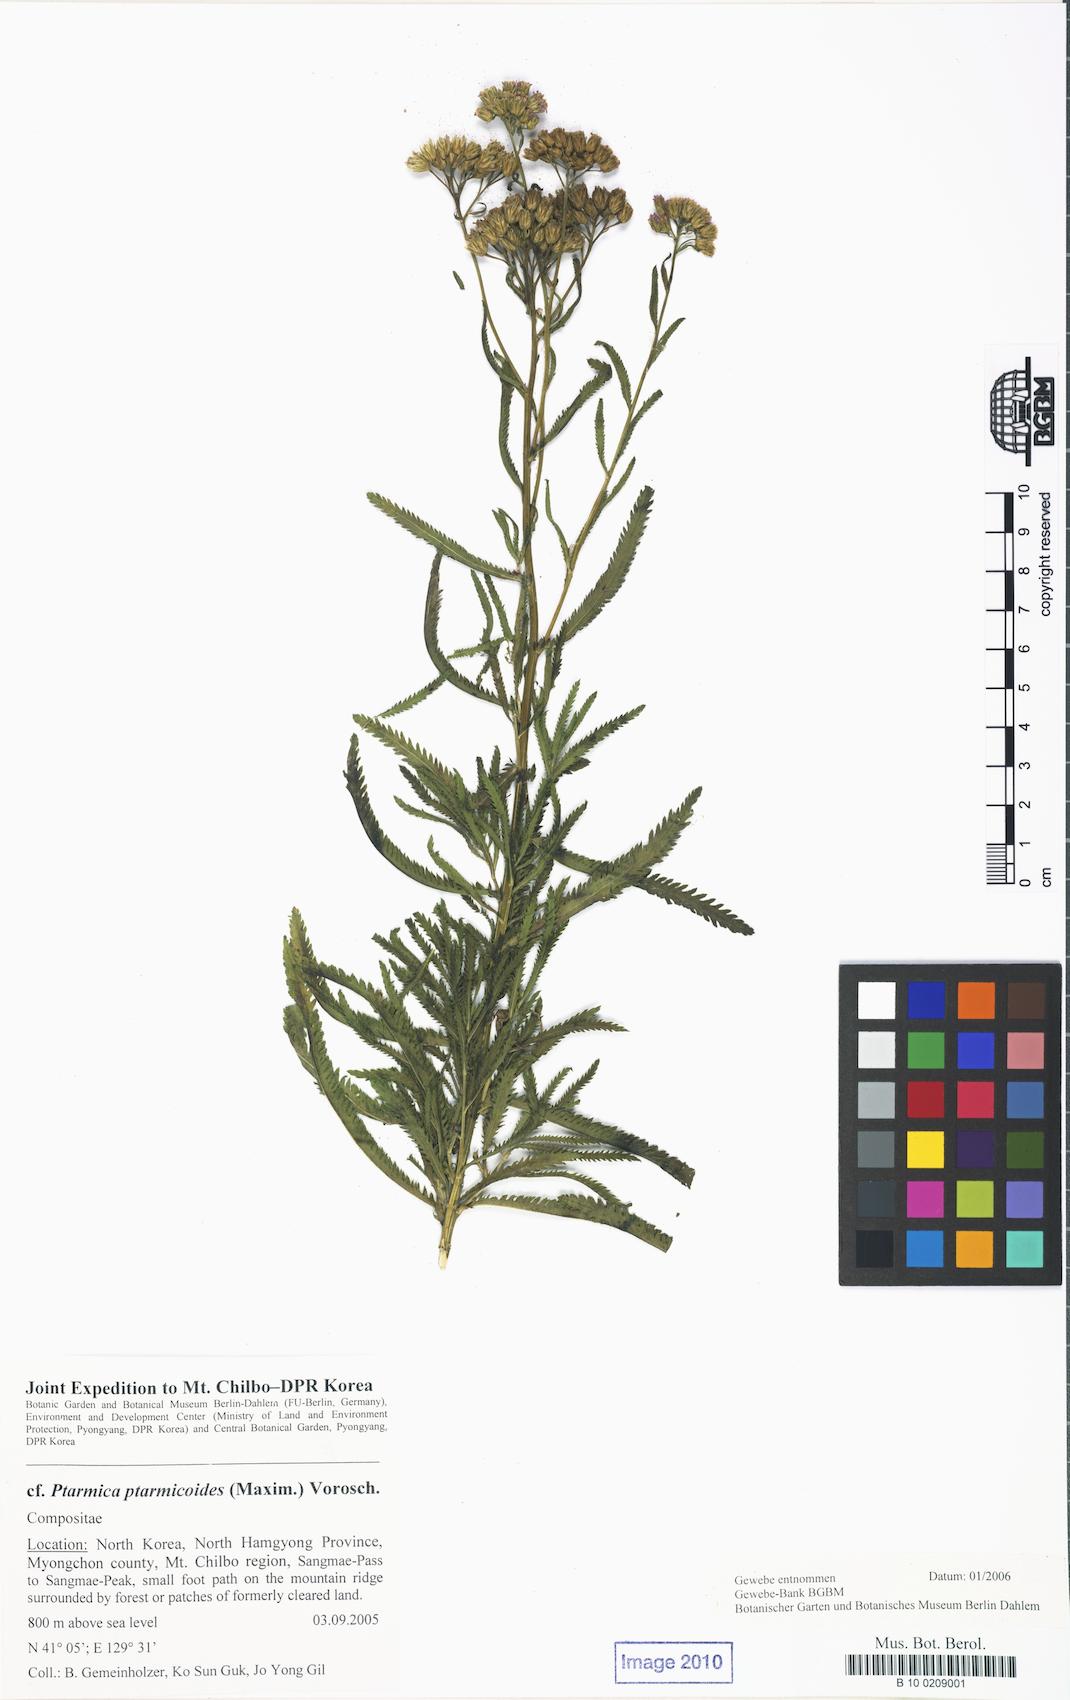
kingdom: Plantae
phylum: Tracheophyta
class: Magnoliopsida
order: Asterales
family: Asteraceae
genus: Achillea
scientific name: Achillea ptarmicoides
